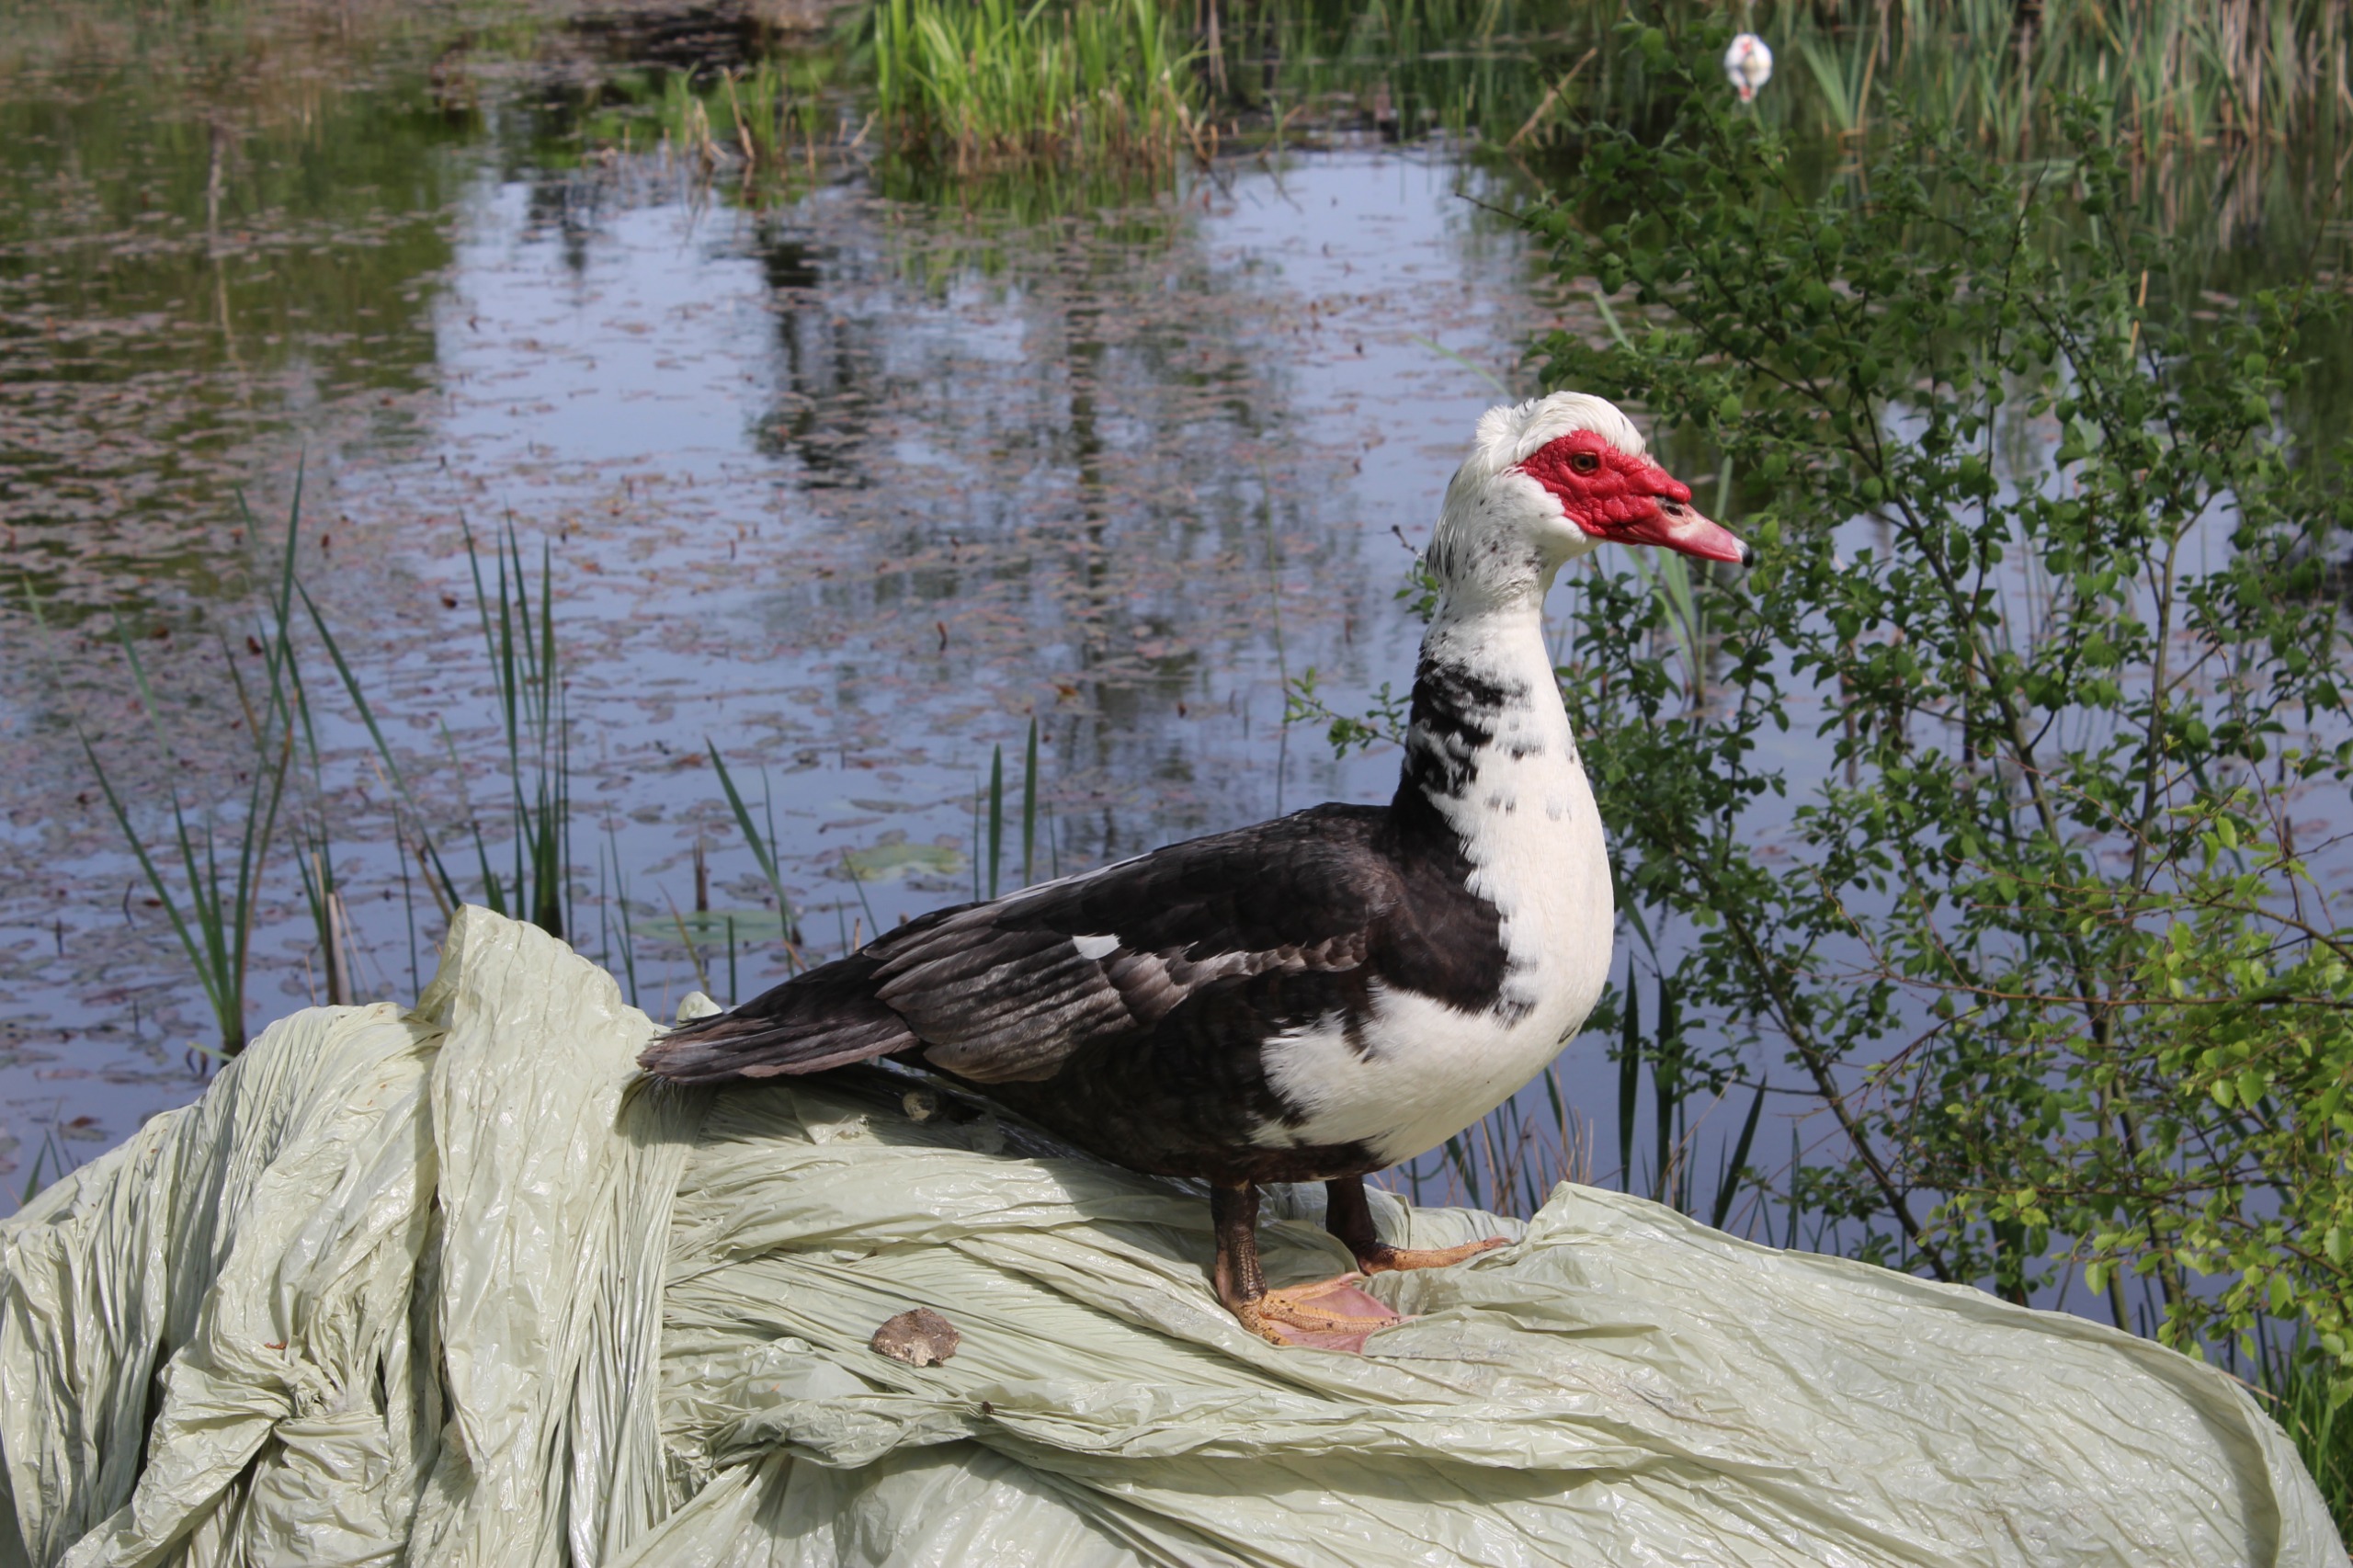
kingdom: Animalia
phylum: Chordata
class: Aves
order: Anseriformes
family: Anatidae
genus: Cairina
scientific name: Cairina moschata
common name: Moskusand
